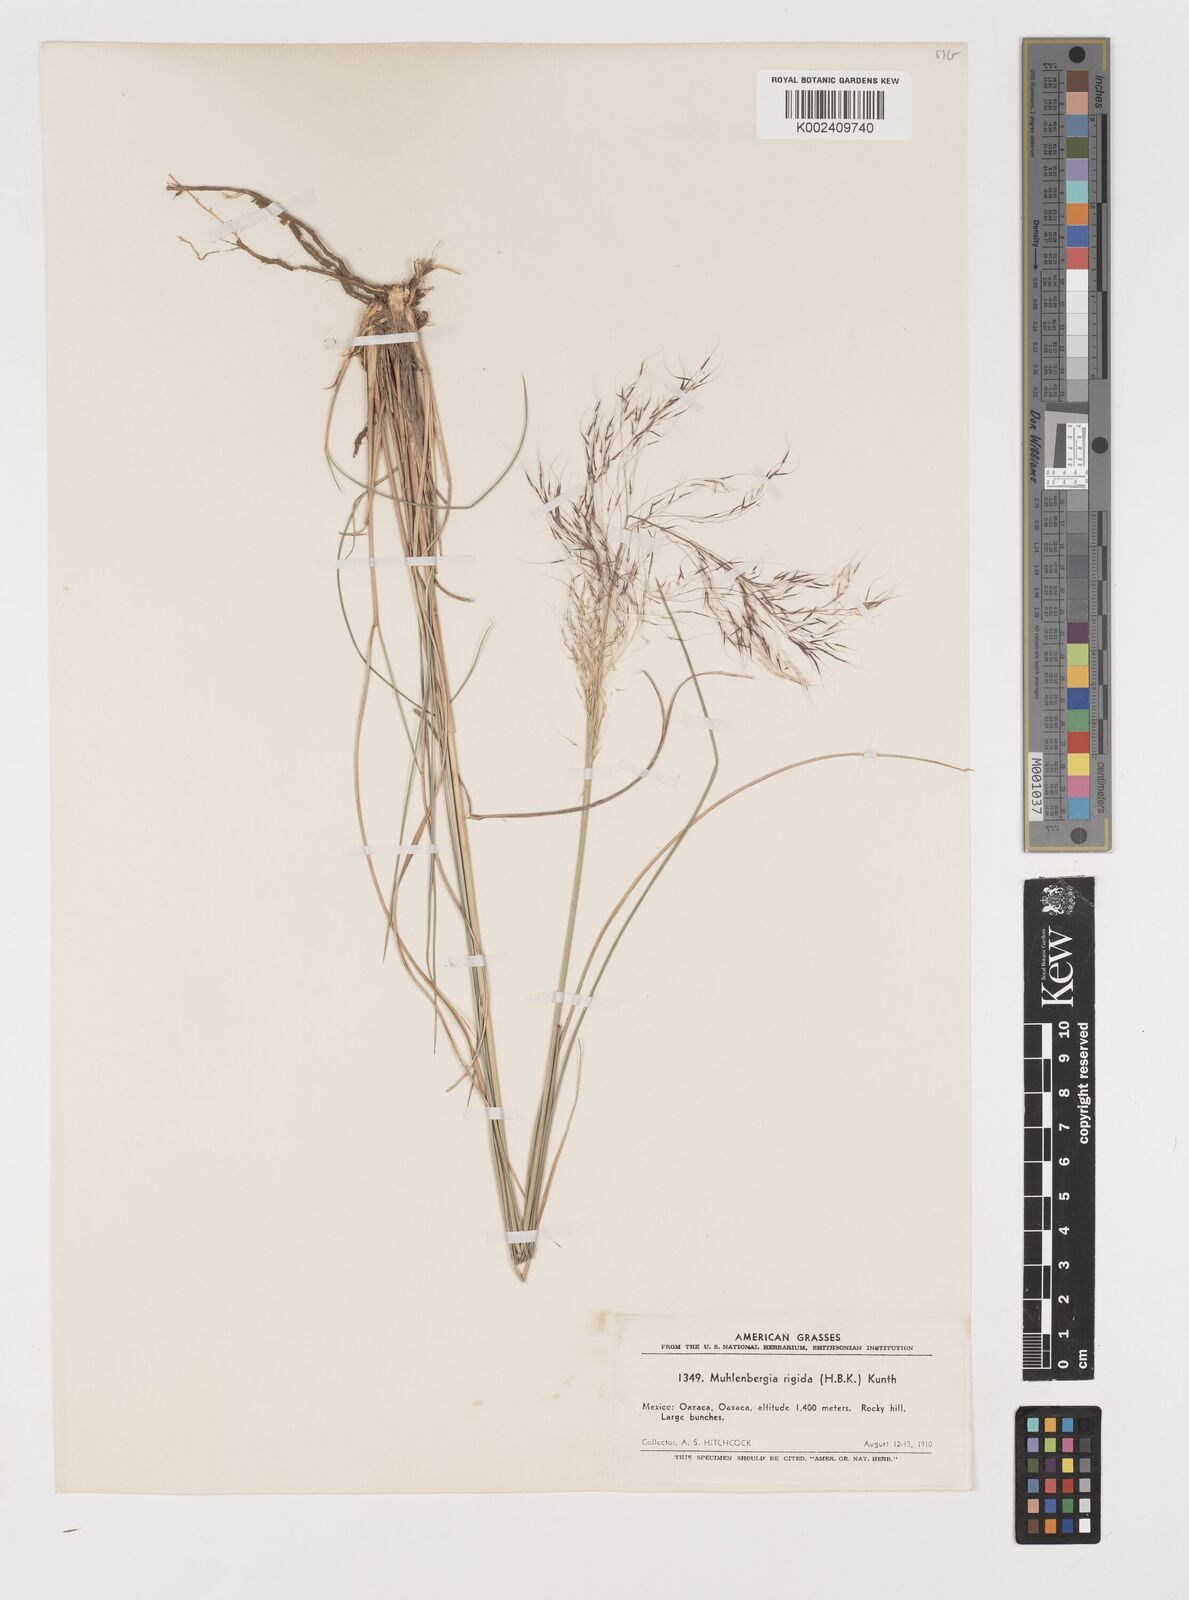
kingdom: Plantae
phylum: Tracheophyta
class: Liliopsida
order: Poales
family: Poaceae
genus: Muhlenbergia
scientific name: Muhlenbergia rigida
